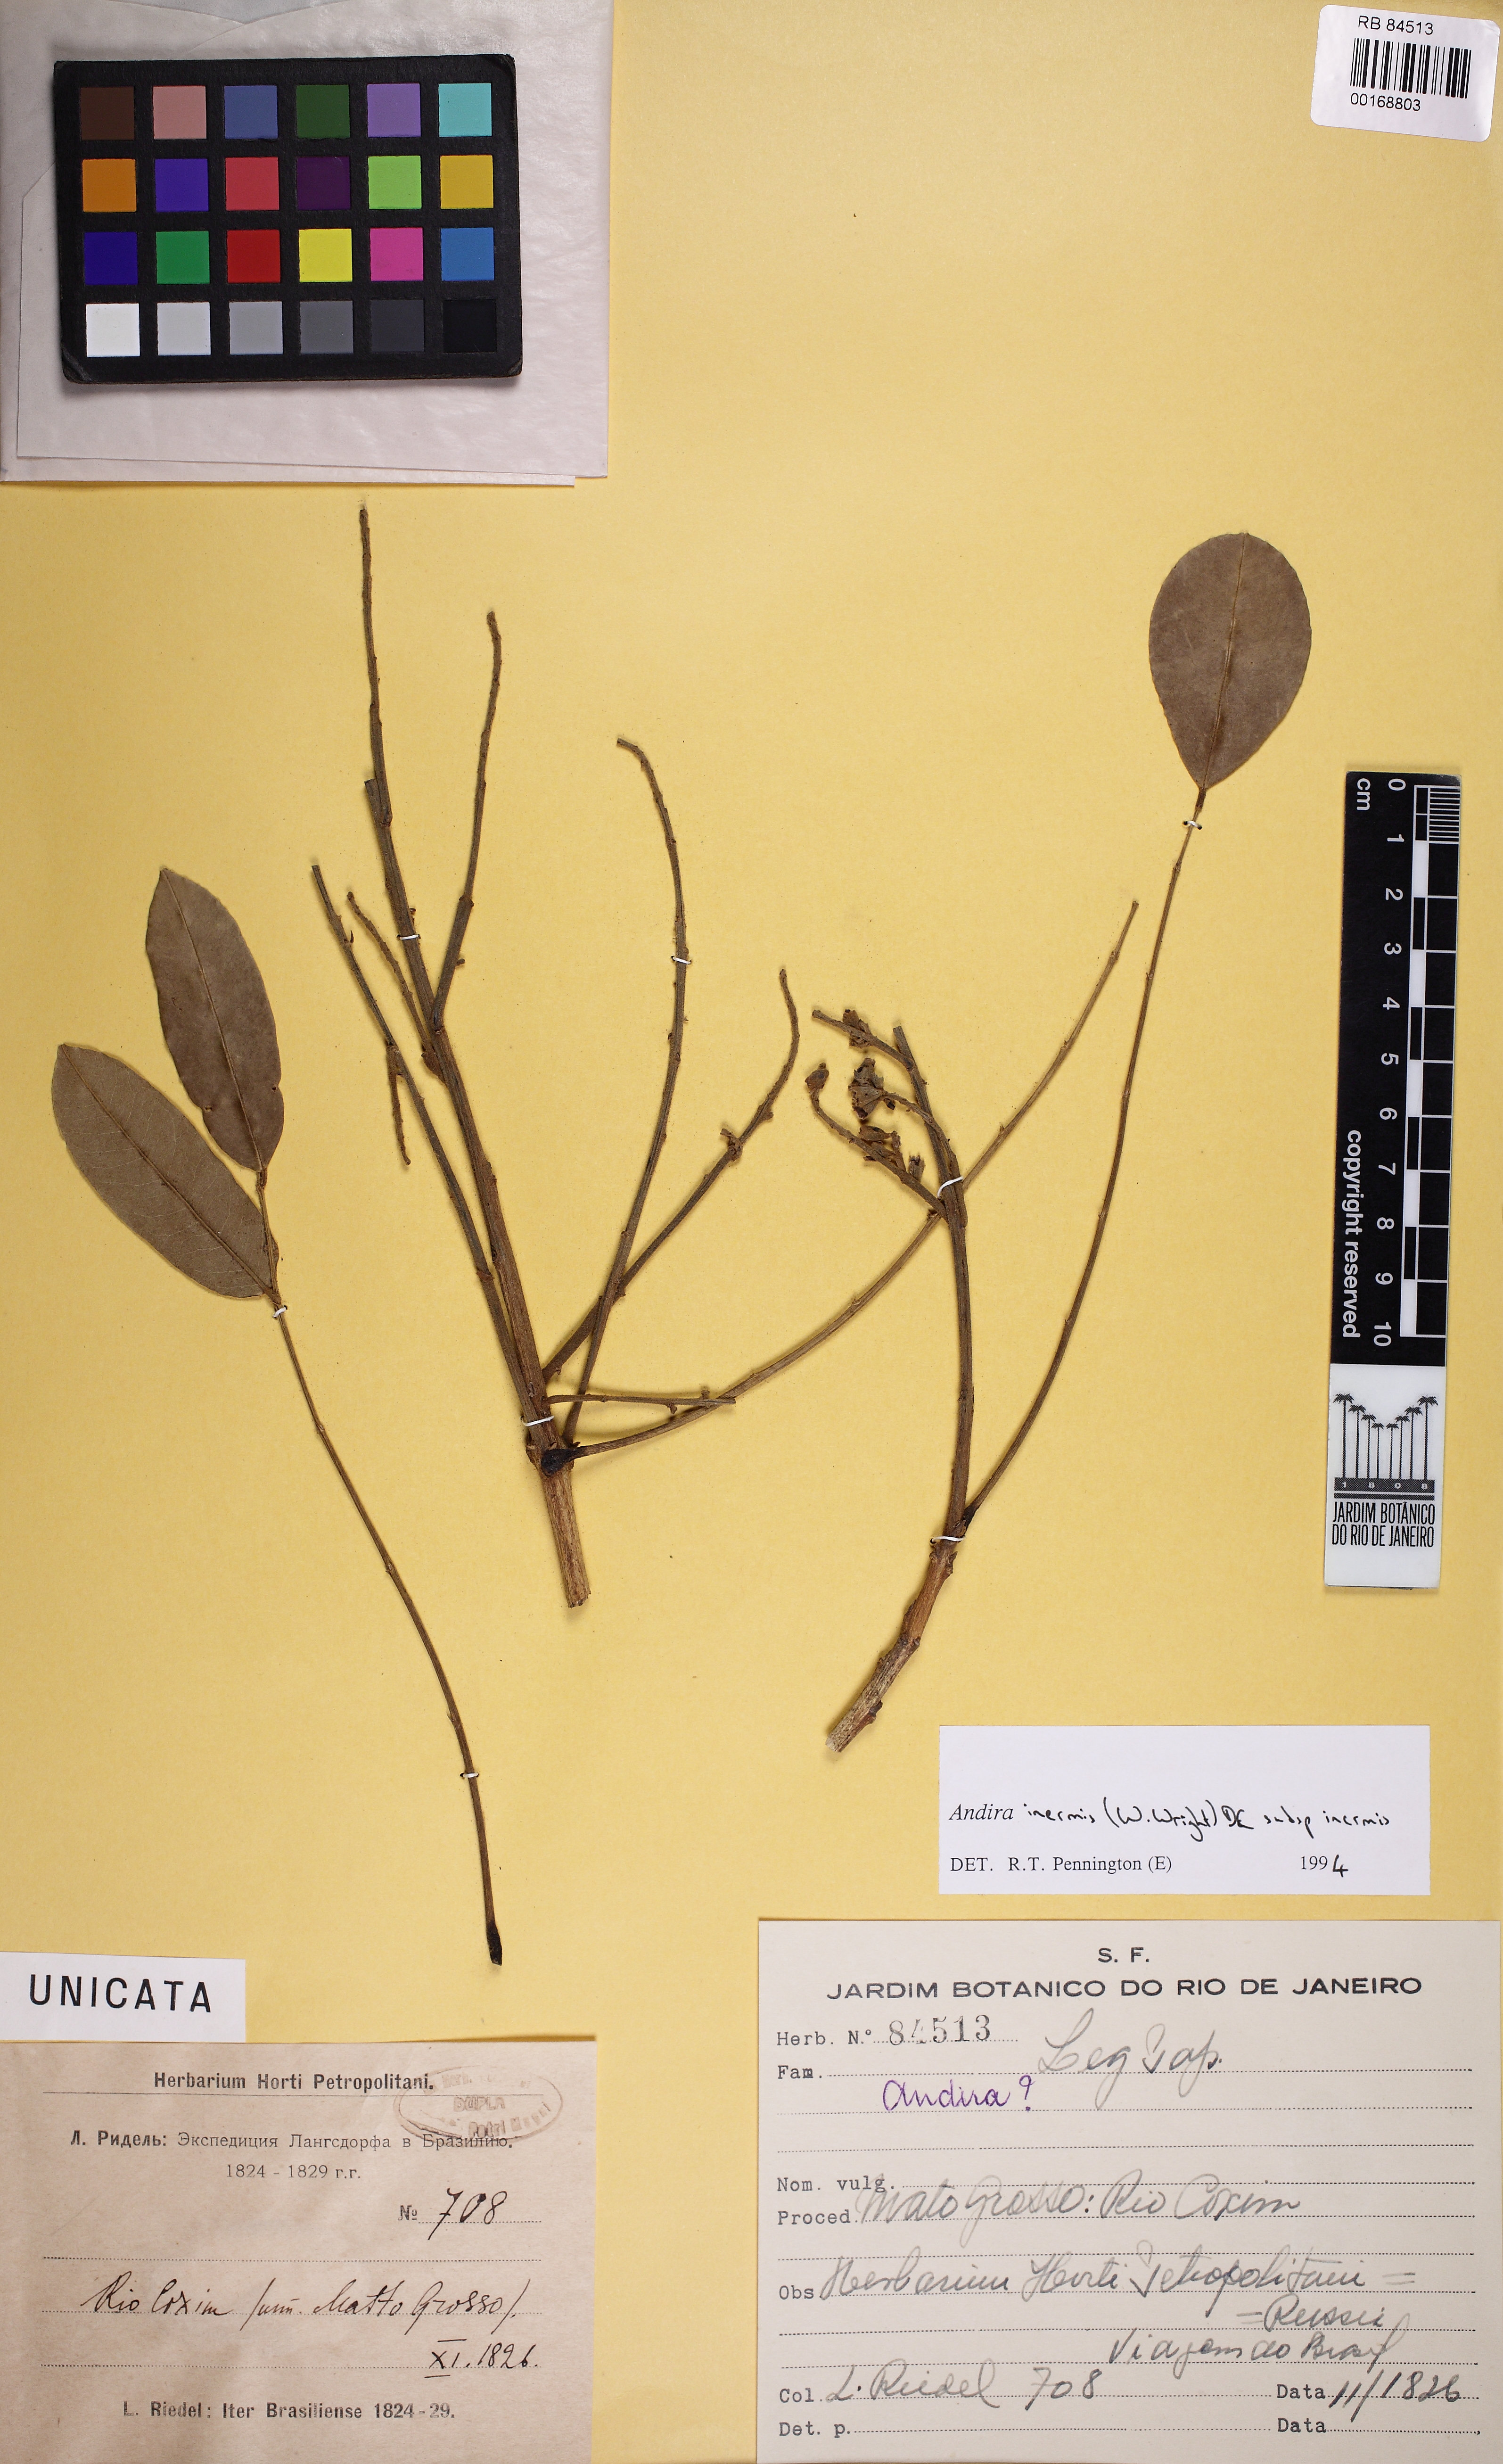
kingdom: Plantae
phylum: Tracheophyta
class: Magnoliopsida
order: Fabales
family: Fabaceae
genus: Andira
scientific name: Andira inermis
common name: Angelin
